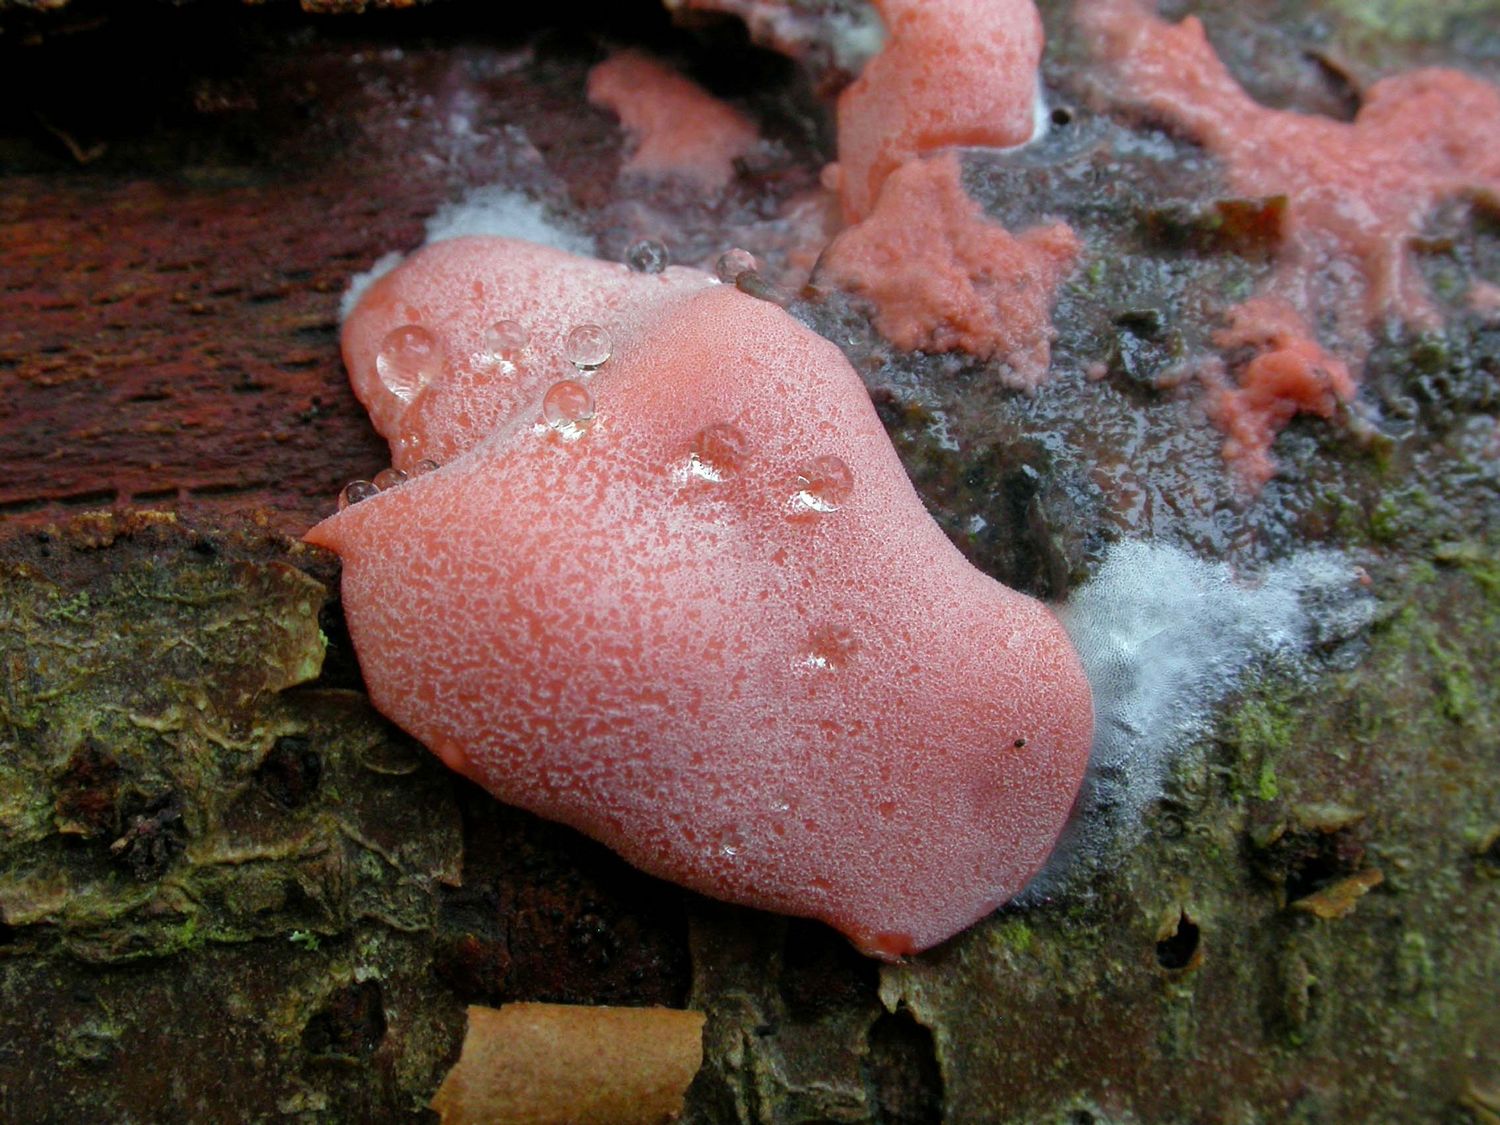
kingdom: Protozoa
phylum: Mycetozoa
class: Myxomycetes
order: Trichiales
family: Dictydiaethaliaceae
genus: Dictydiaethalium
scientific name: Dictydiaethalium plumbeum
